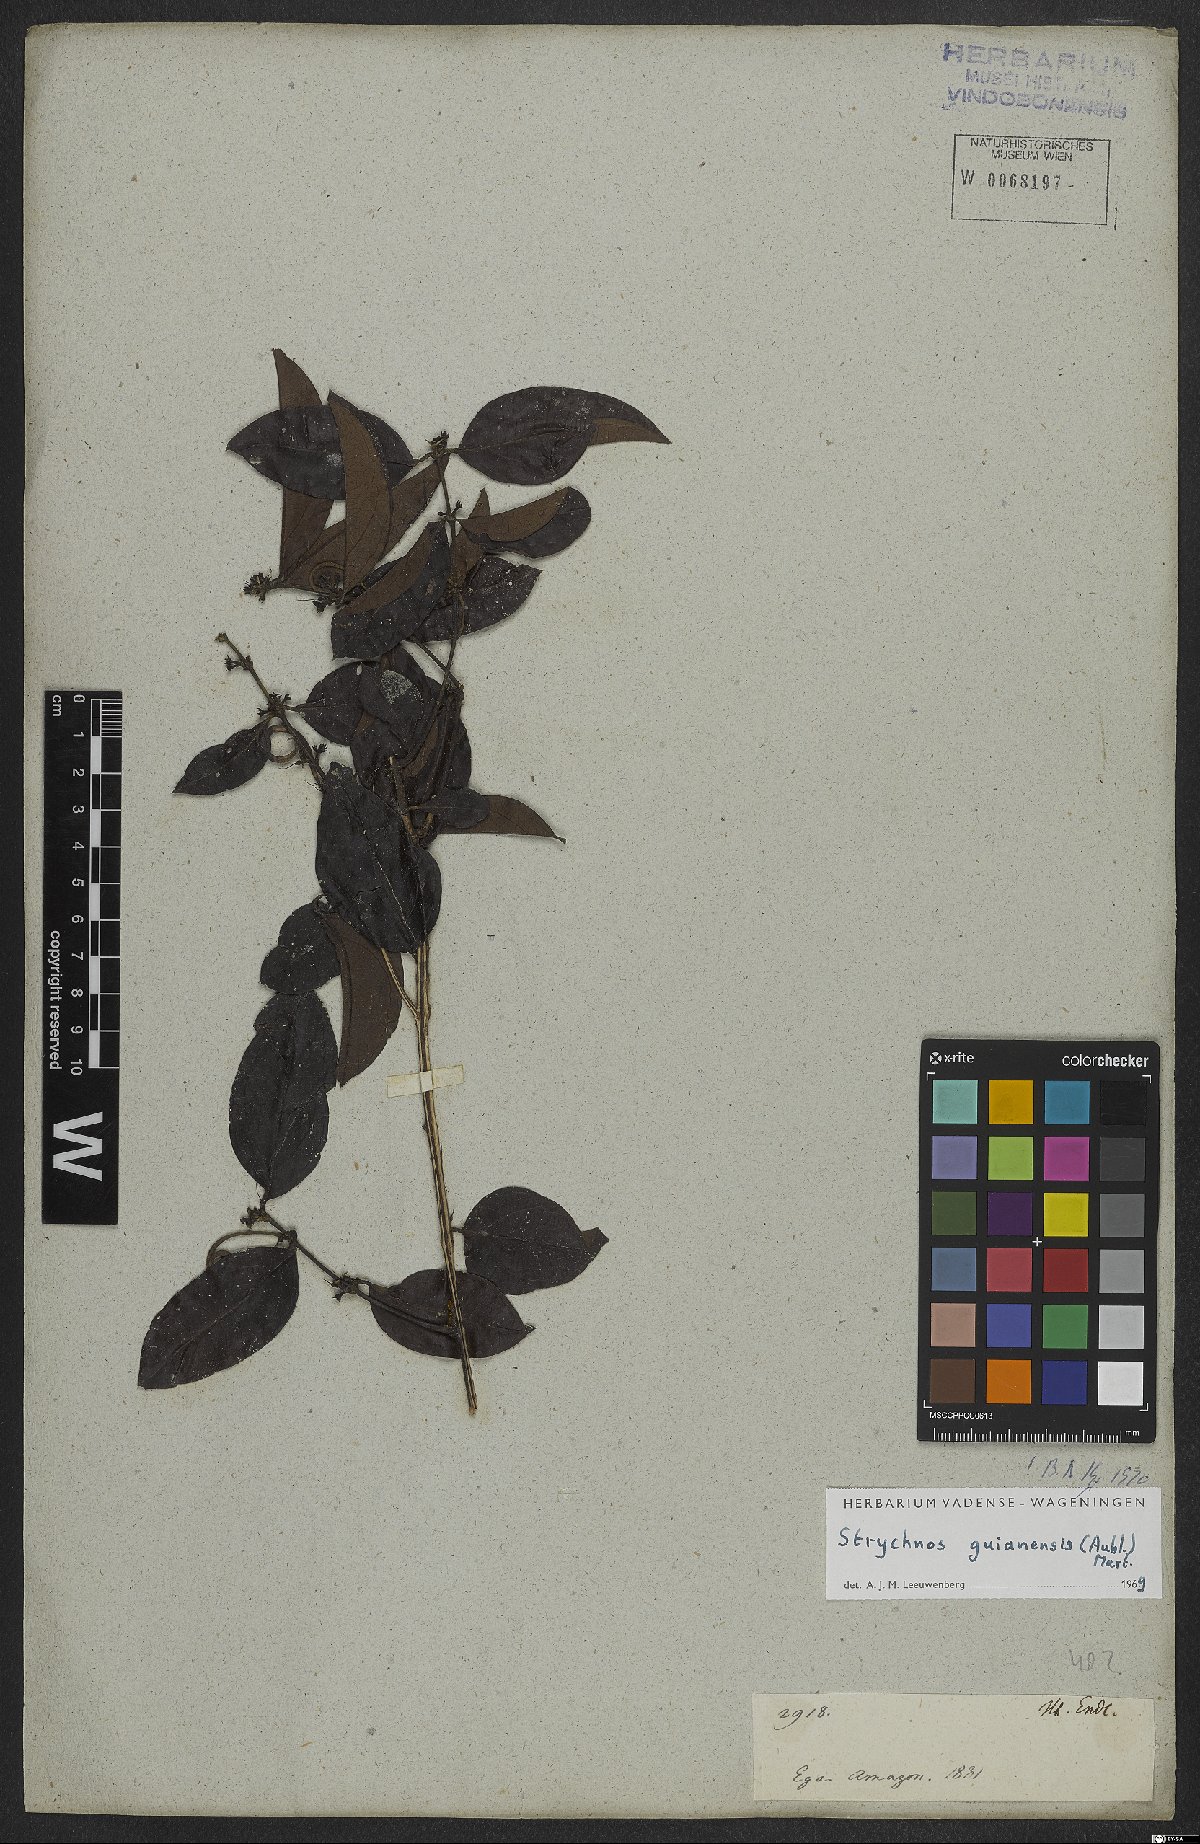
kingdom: Plantae
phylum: Tracheophyta
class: Magnoliopsida
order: Gentianales
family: Loganiaceae
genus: Strychnos
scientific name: Strychnos guianensis
